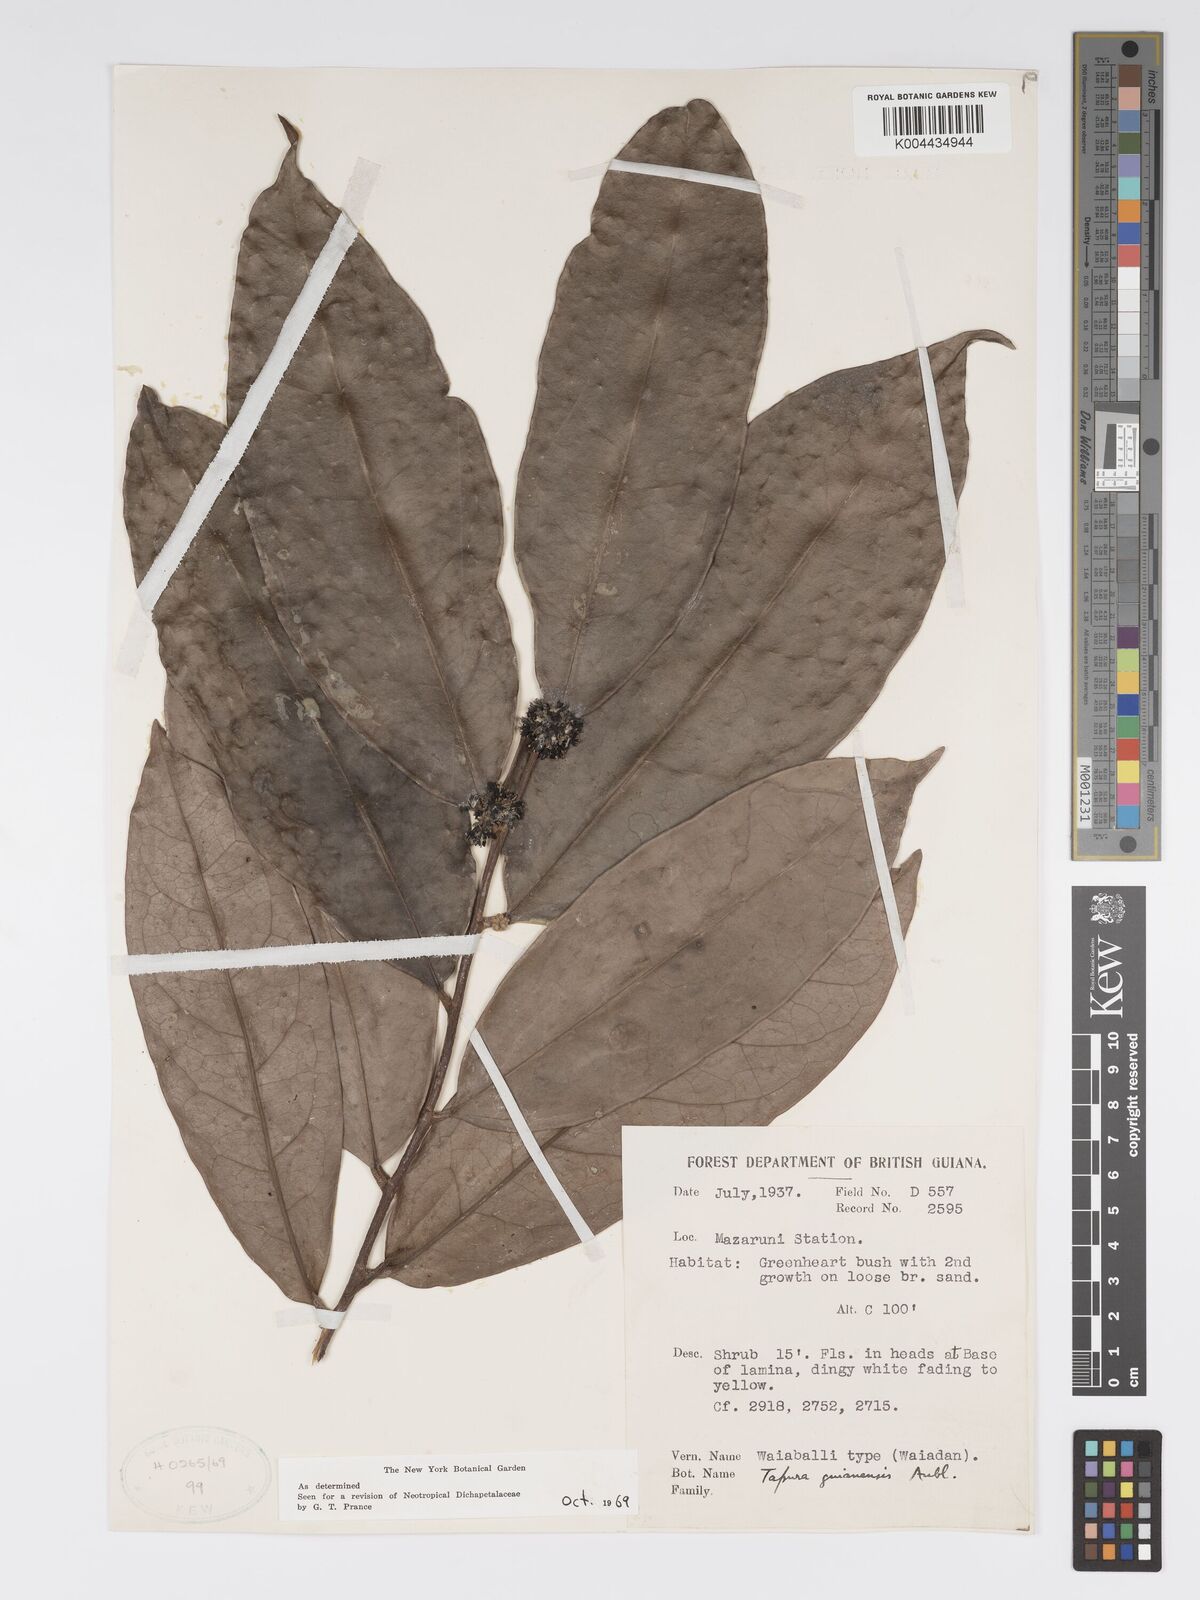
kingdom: Plantae
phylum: Tracheophyta
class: Magnoliopsida
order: Malpighiales
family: Dichapetalaceae
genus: Tapura
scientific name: Tapura guianensis
